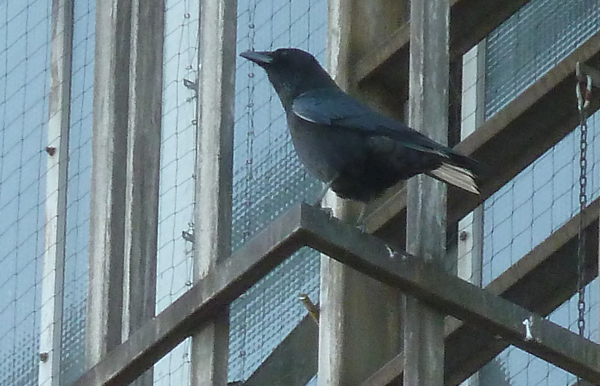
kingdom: Animalia
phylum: Chordata
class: Aves
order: Passeriformes
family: Corvidae
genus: Corvus
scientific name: Corvus corone
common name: Carrion crow
